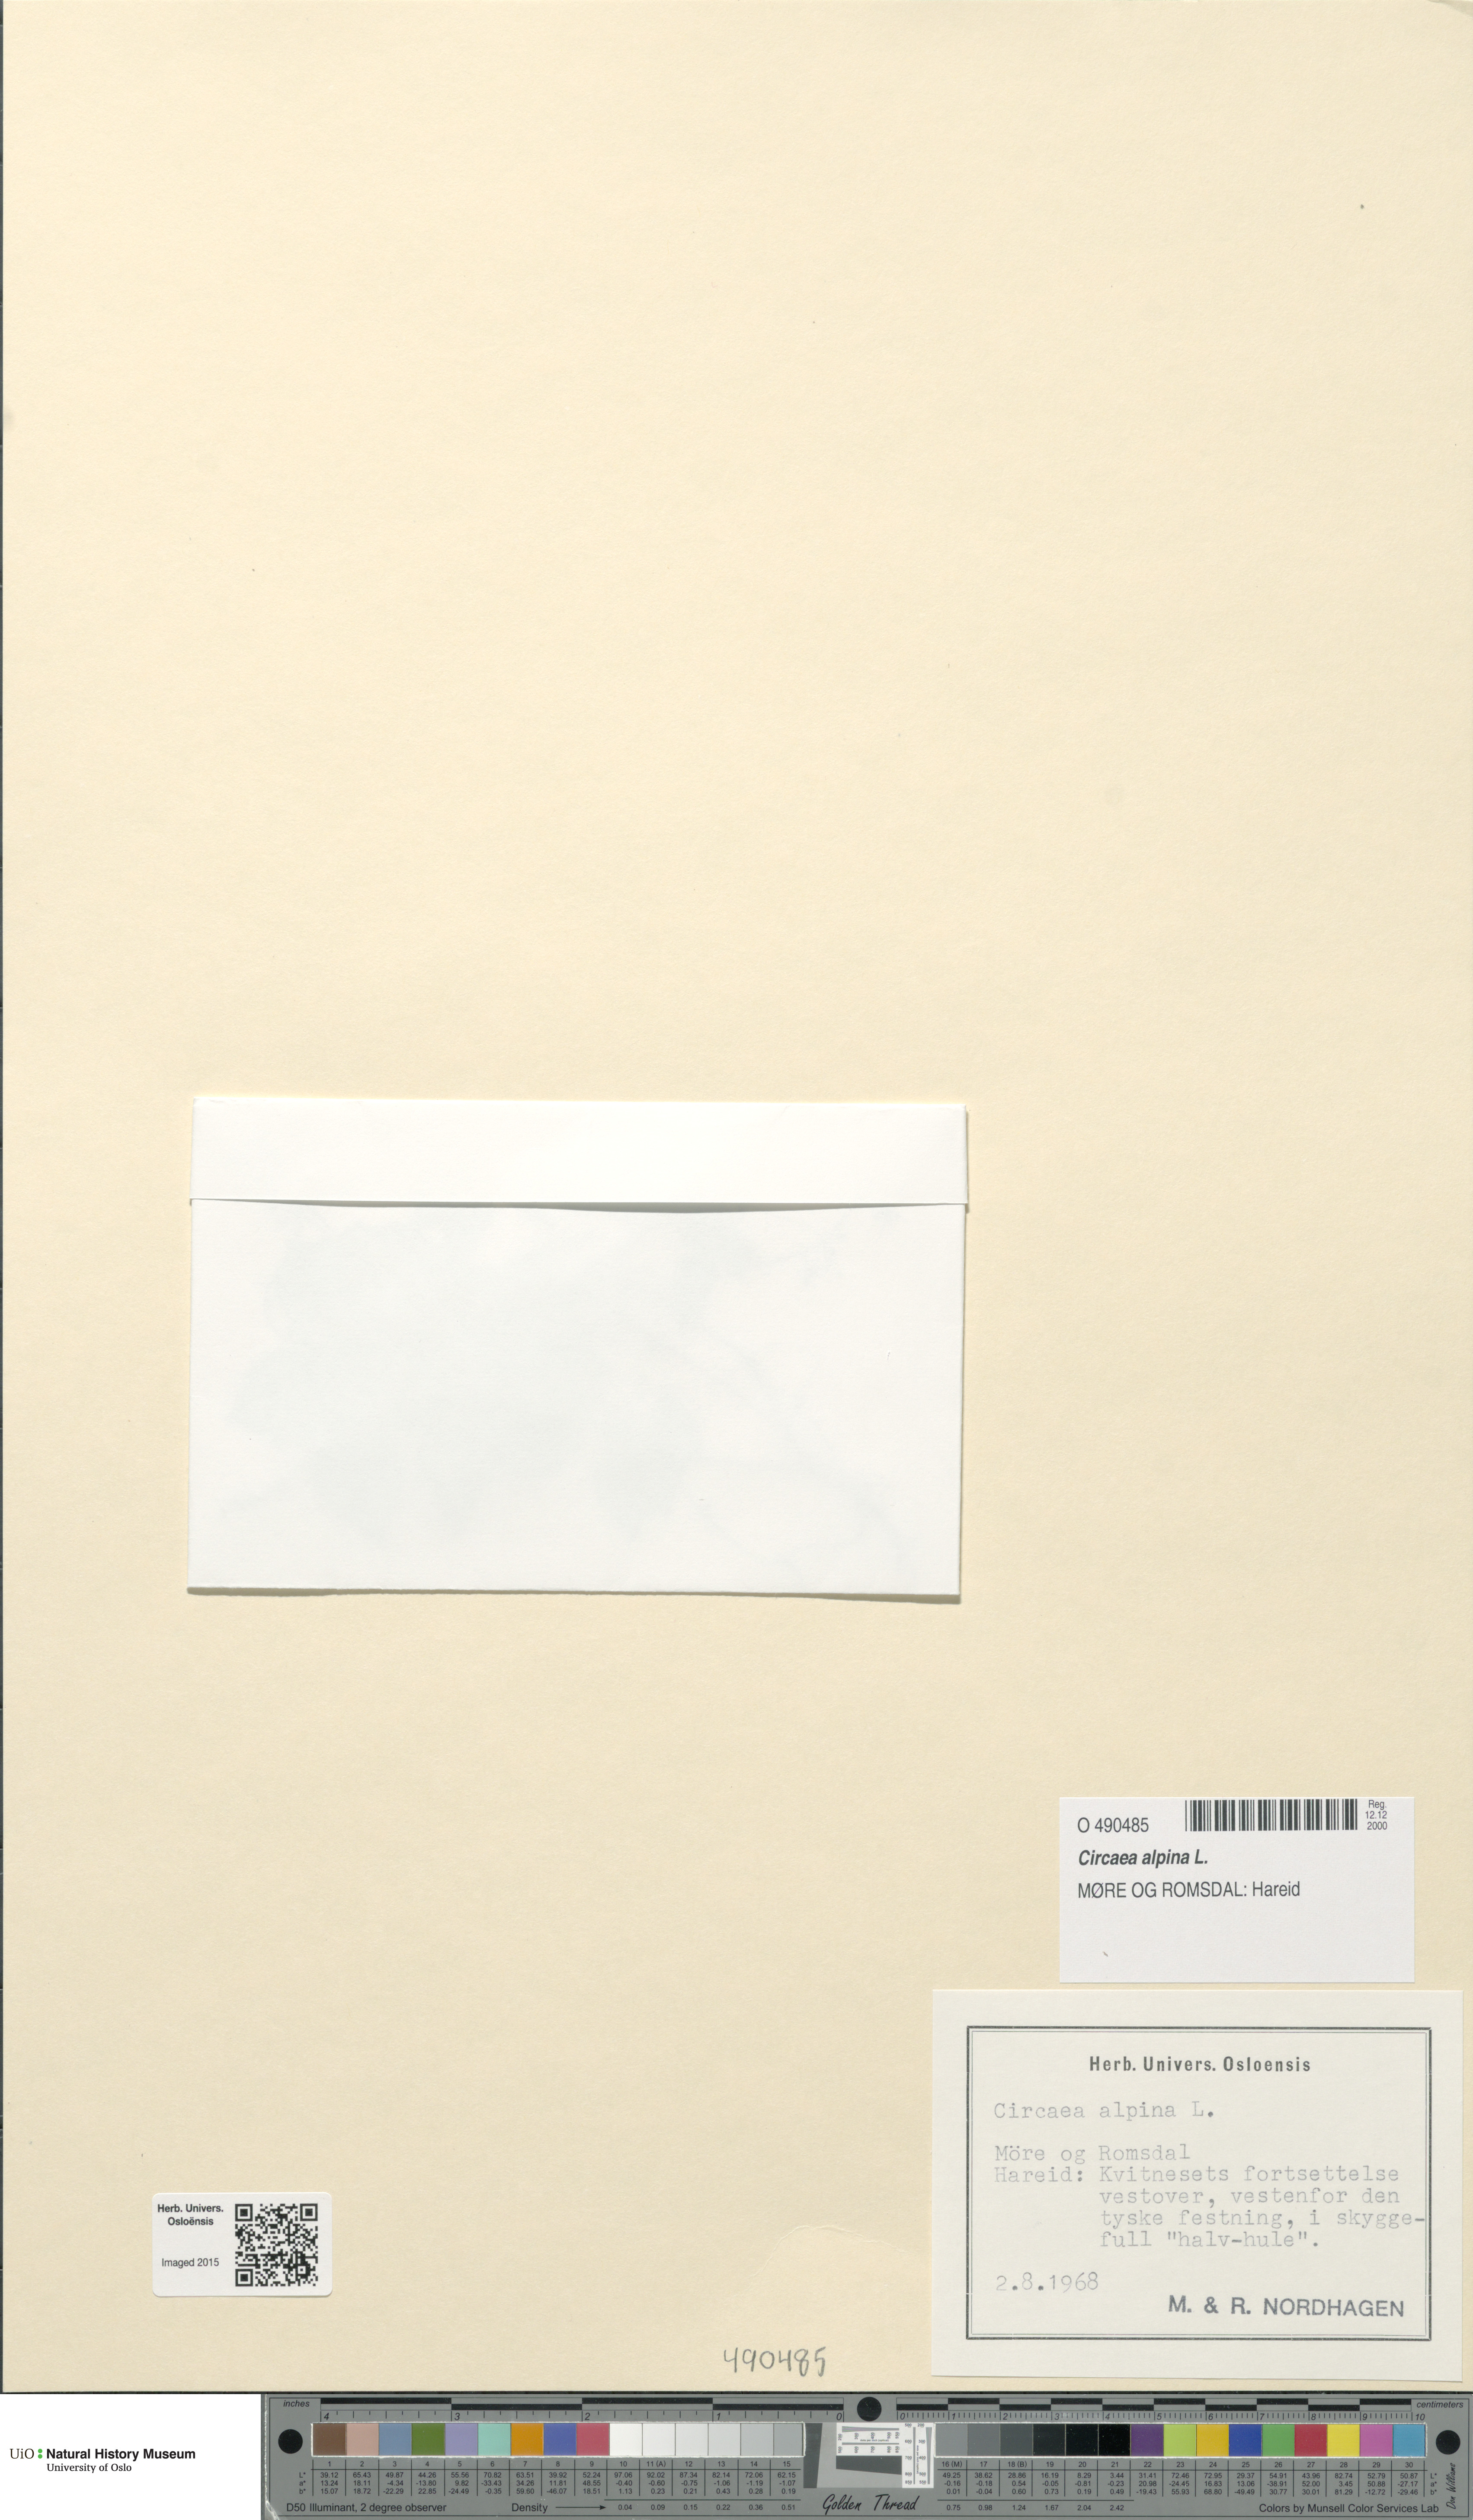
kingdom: Plantae
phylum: Tracheophyta
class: Magnoliopsida
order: Myrtales
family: Onagraceae
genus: Circaea
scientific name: Circaea alpina
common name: Alpine enchanter's-nightshade
